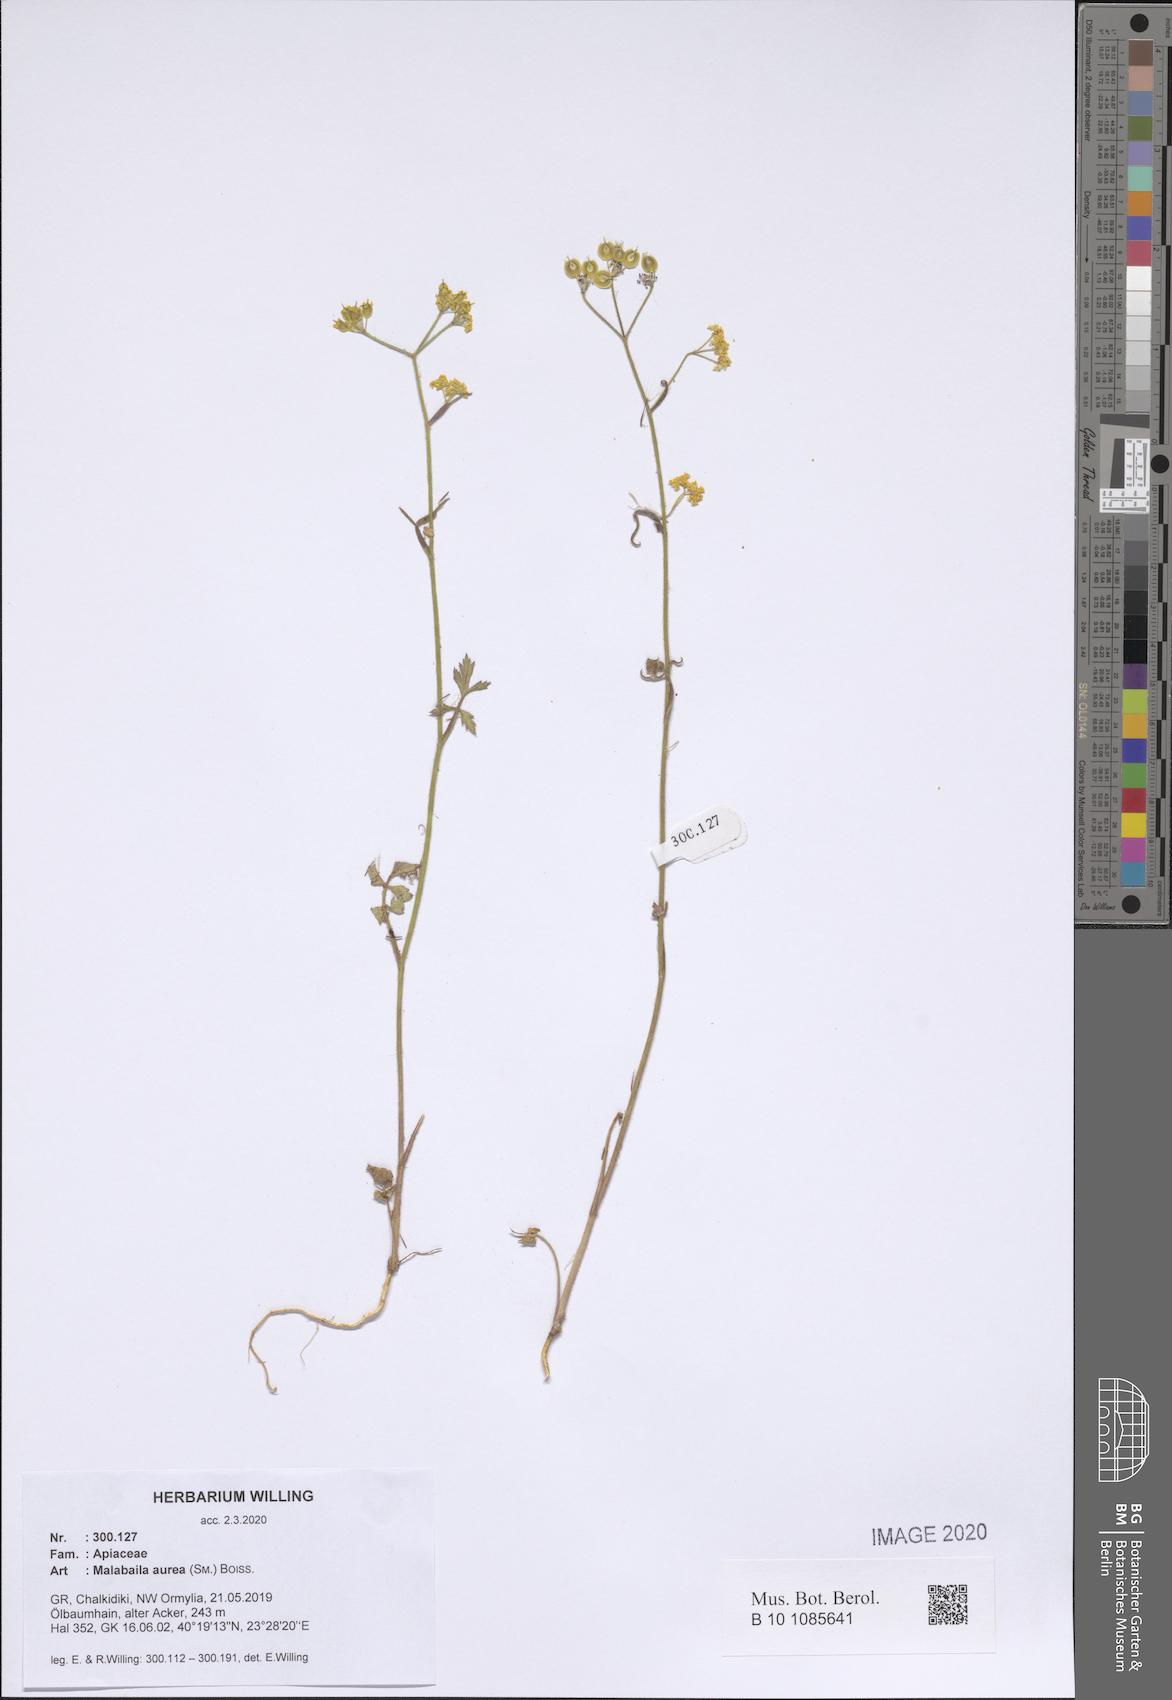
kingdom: Plantae
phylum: Tracheophyta
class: Magnoliopsida
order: Apiales
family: Apiaceae
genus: Leiotulus
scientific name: Leiotulus aureus
